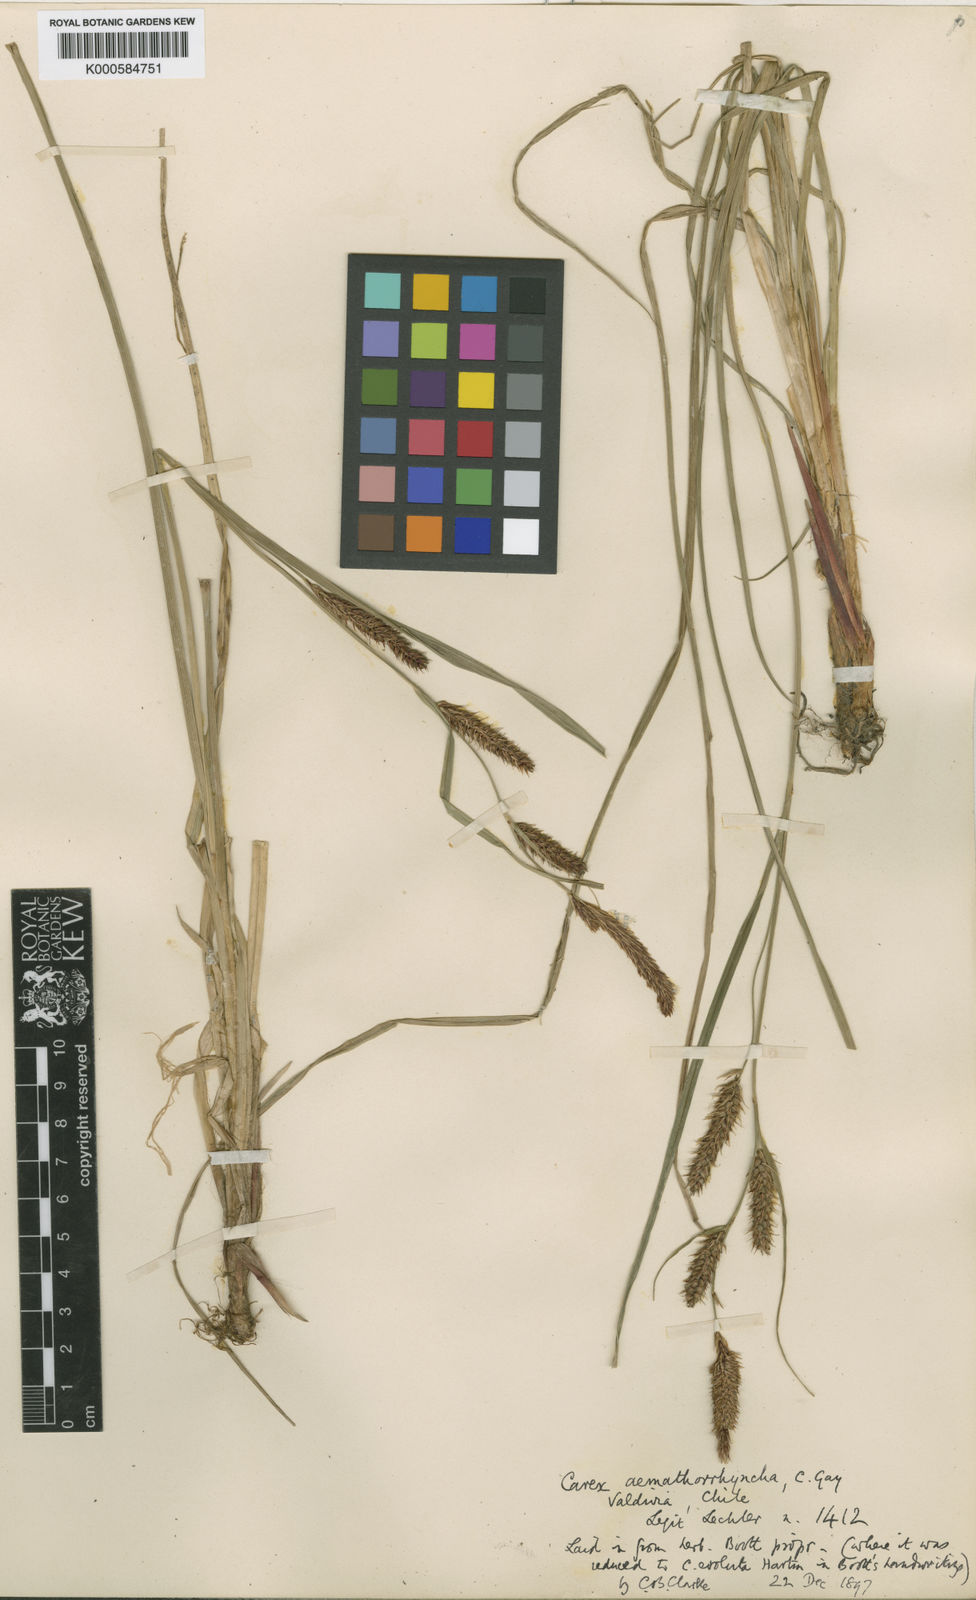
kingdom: Plantae
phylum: Tracheophyta
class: Liliopsida
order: Poales
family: Cyperaceae
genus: Carex
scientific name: Carex
